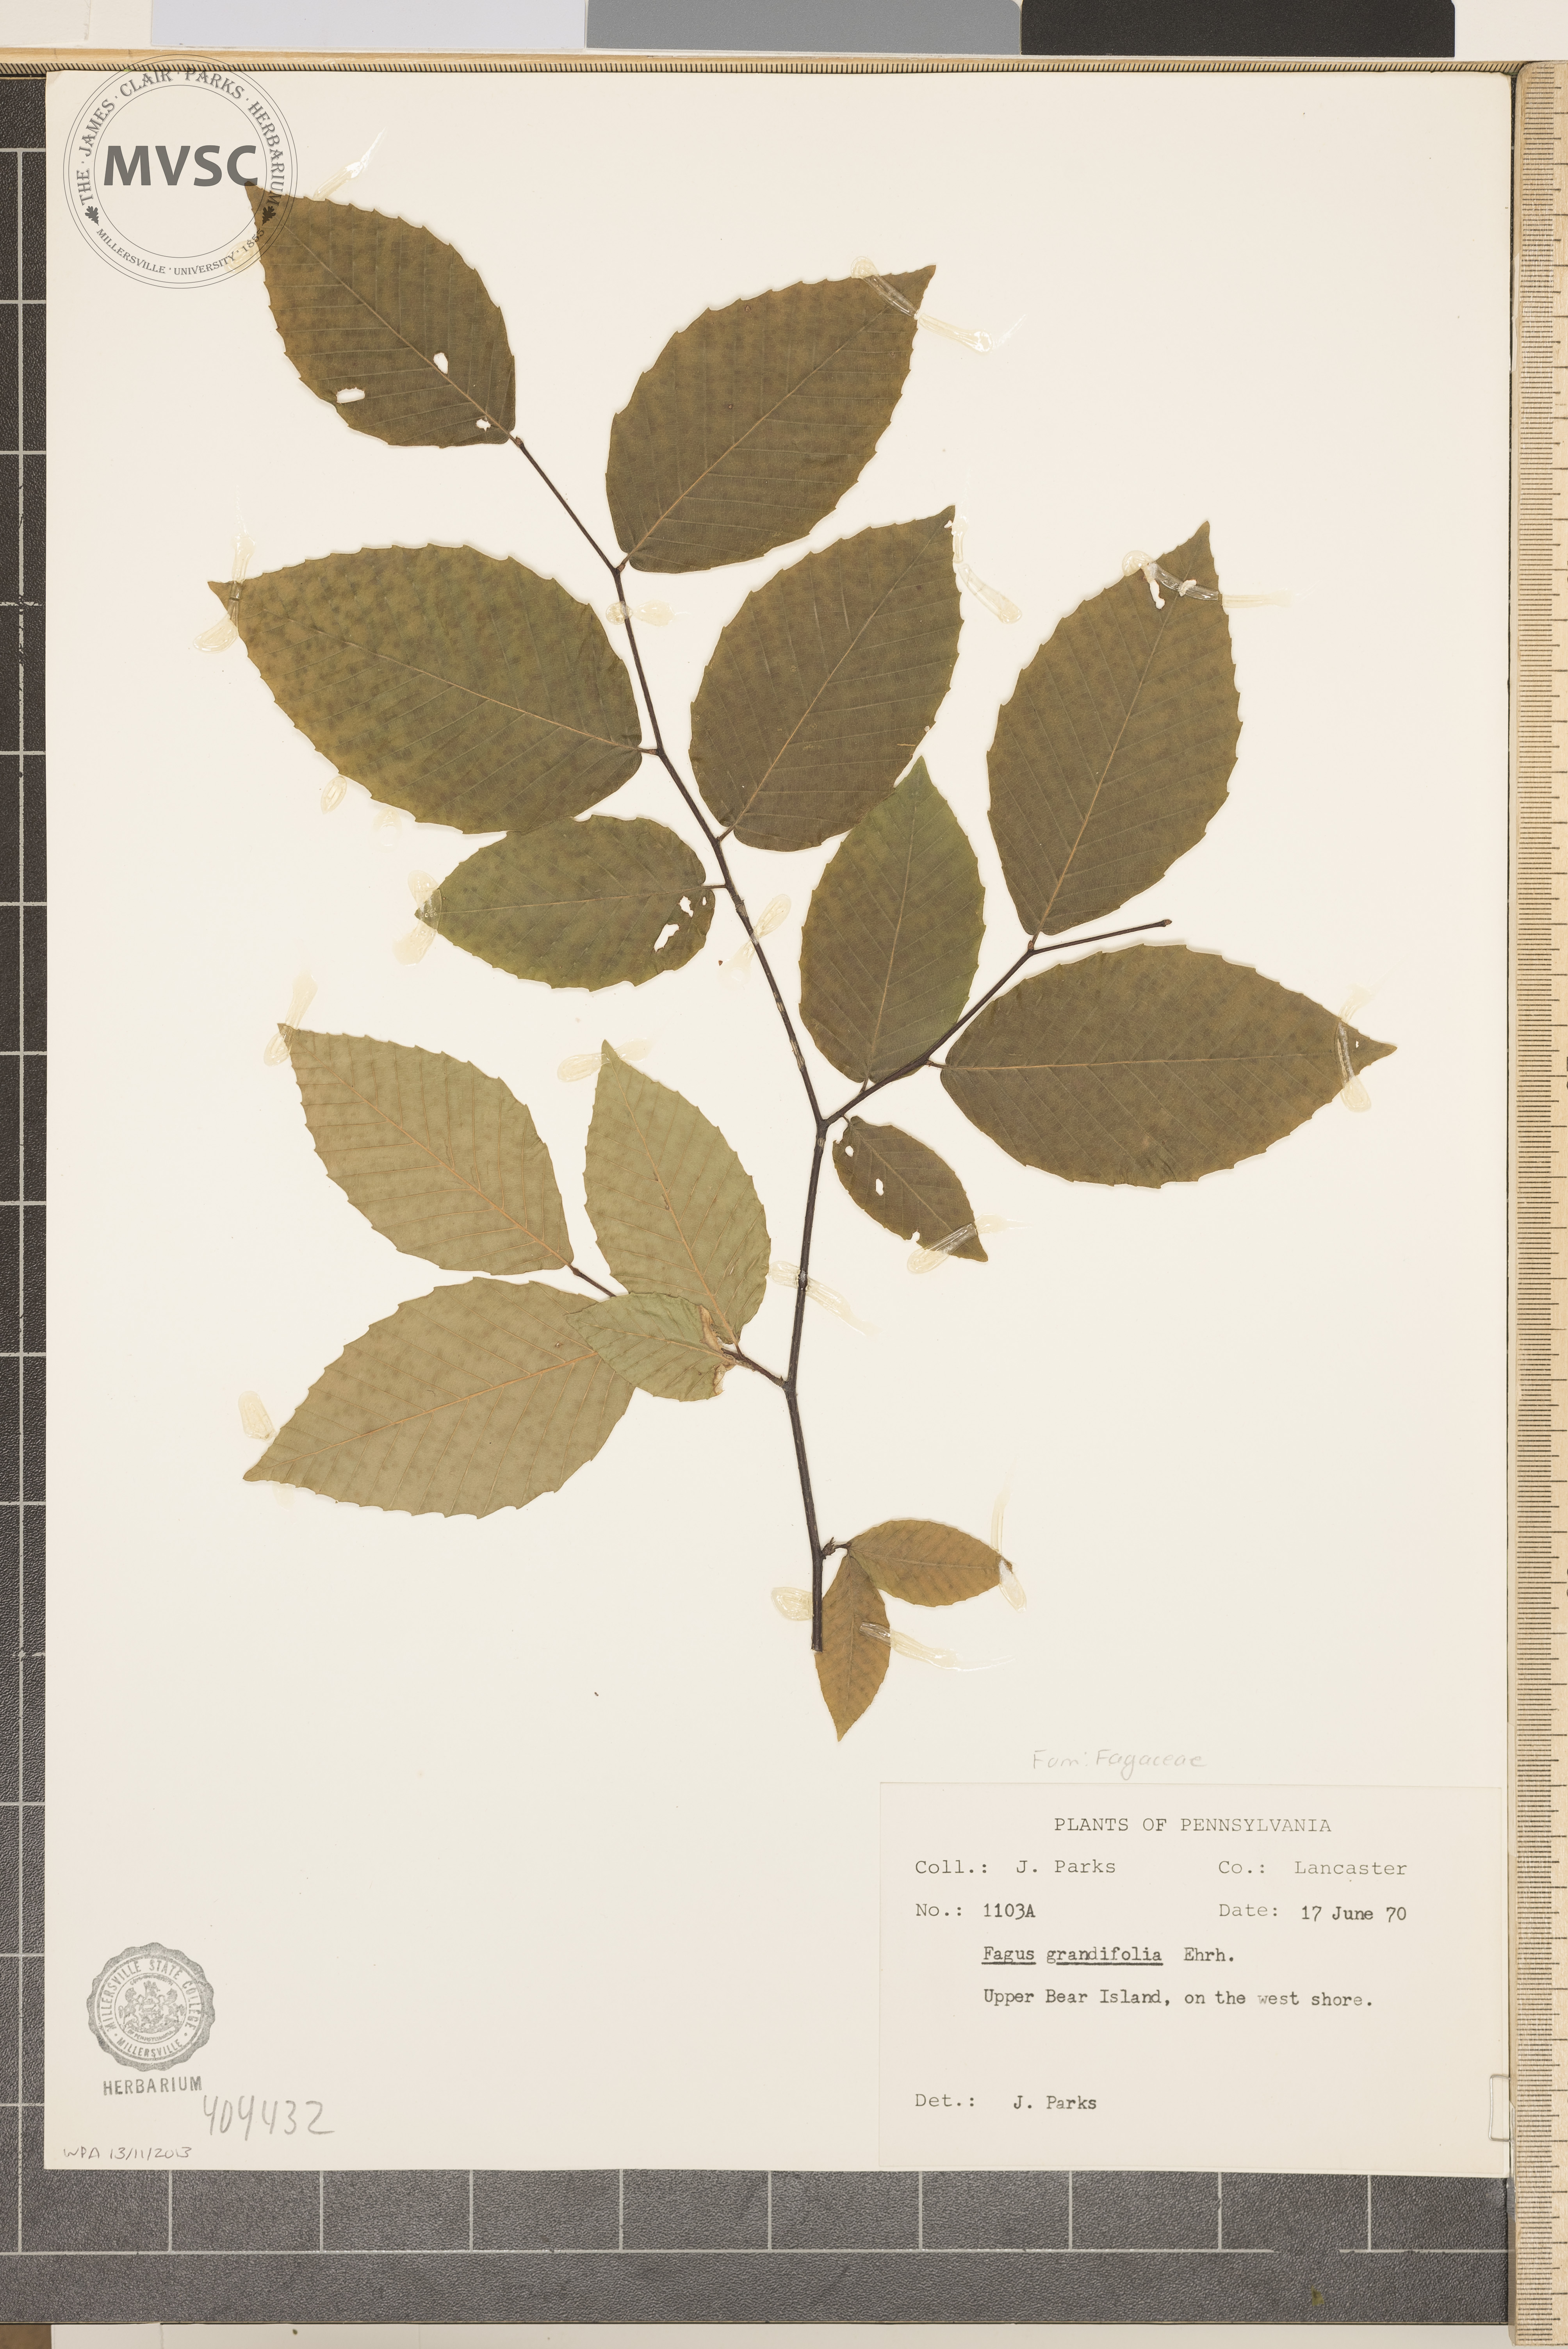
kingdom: Plantae
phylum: Tracheophyta
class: Magnoliopsida
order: Fagales
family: Fagaceae
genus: Fagus
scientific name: Fagus grandifolia
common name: American beech
